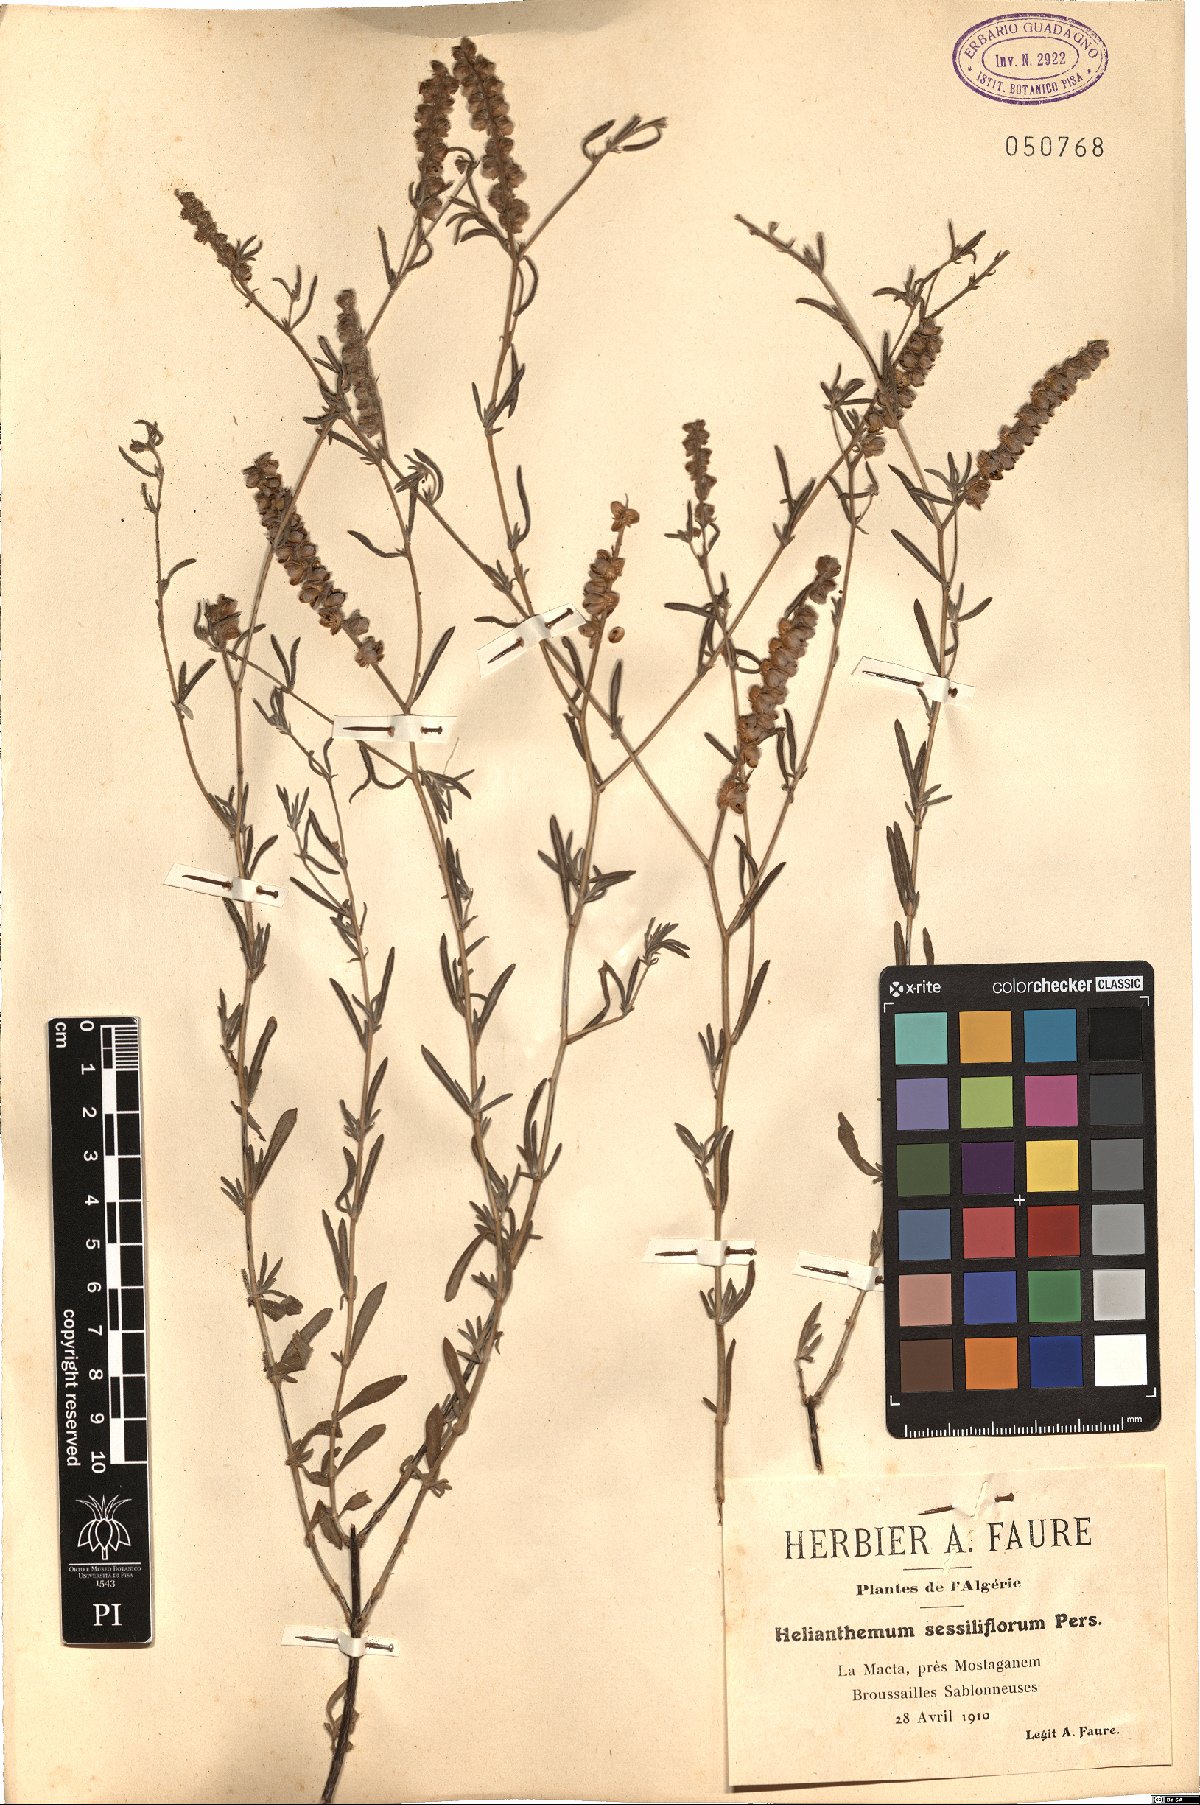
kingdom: Plantae
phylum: Tracheophyta
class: Magnoliopsida
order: Malvales
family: Cistaceae
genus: Helianthemum
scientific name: Helianthemum lippii
